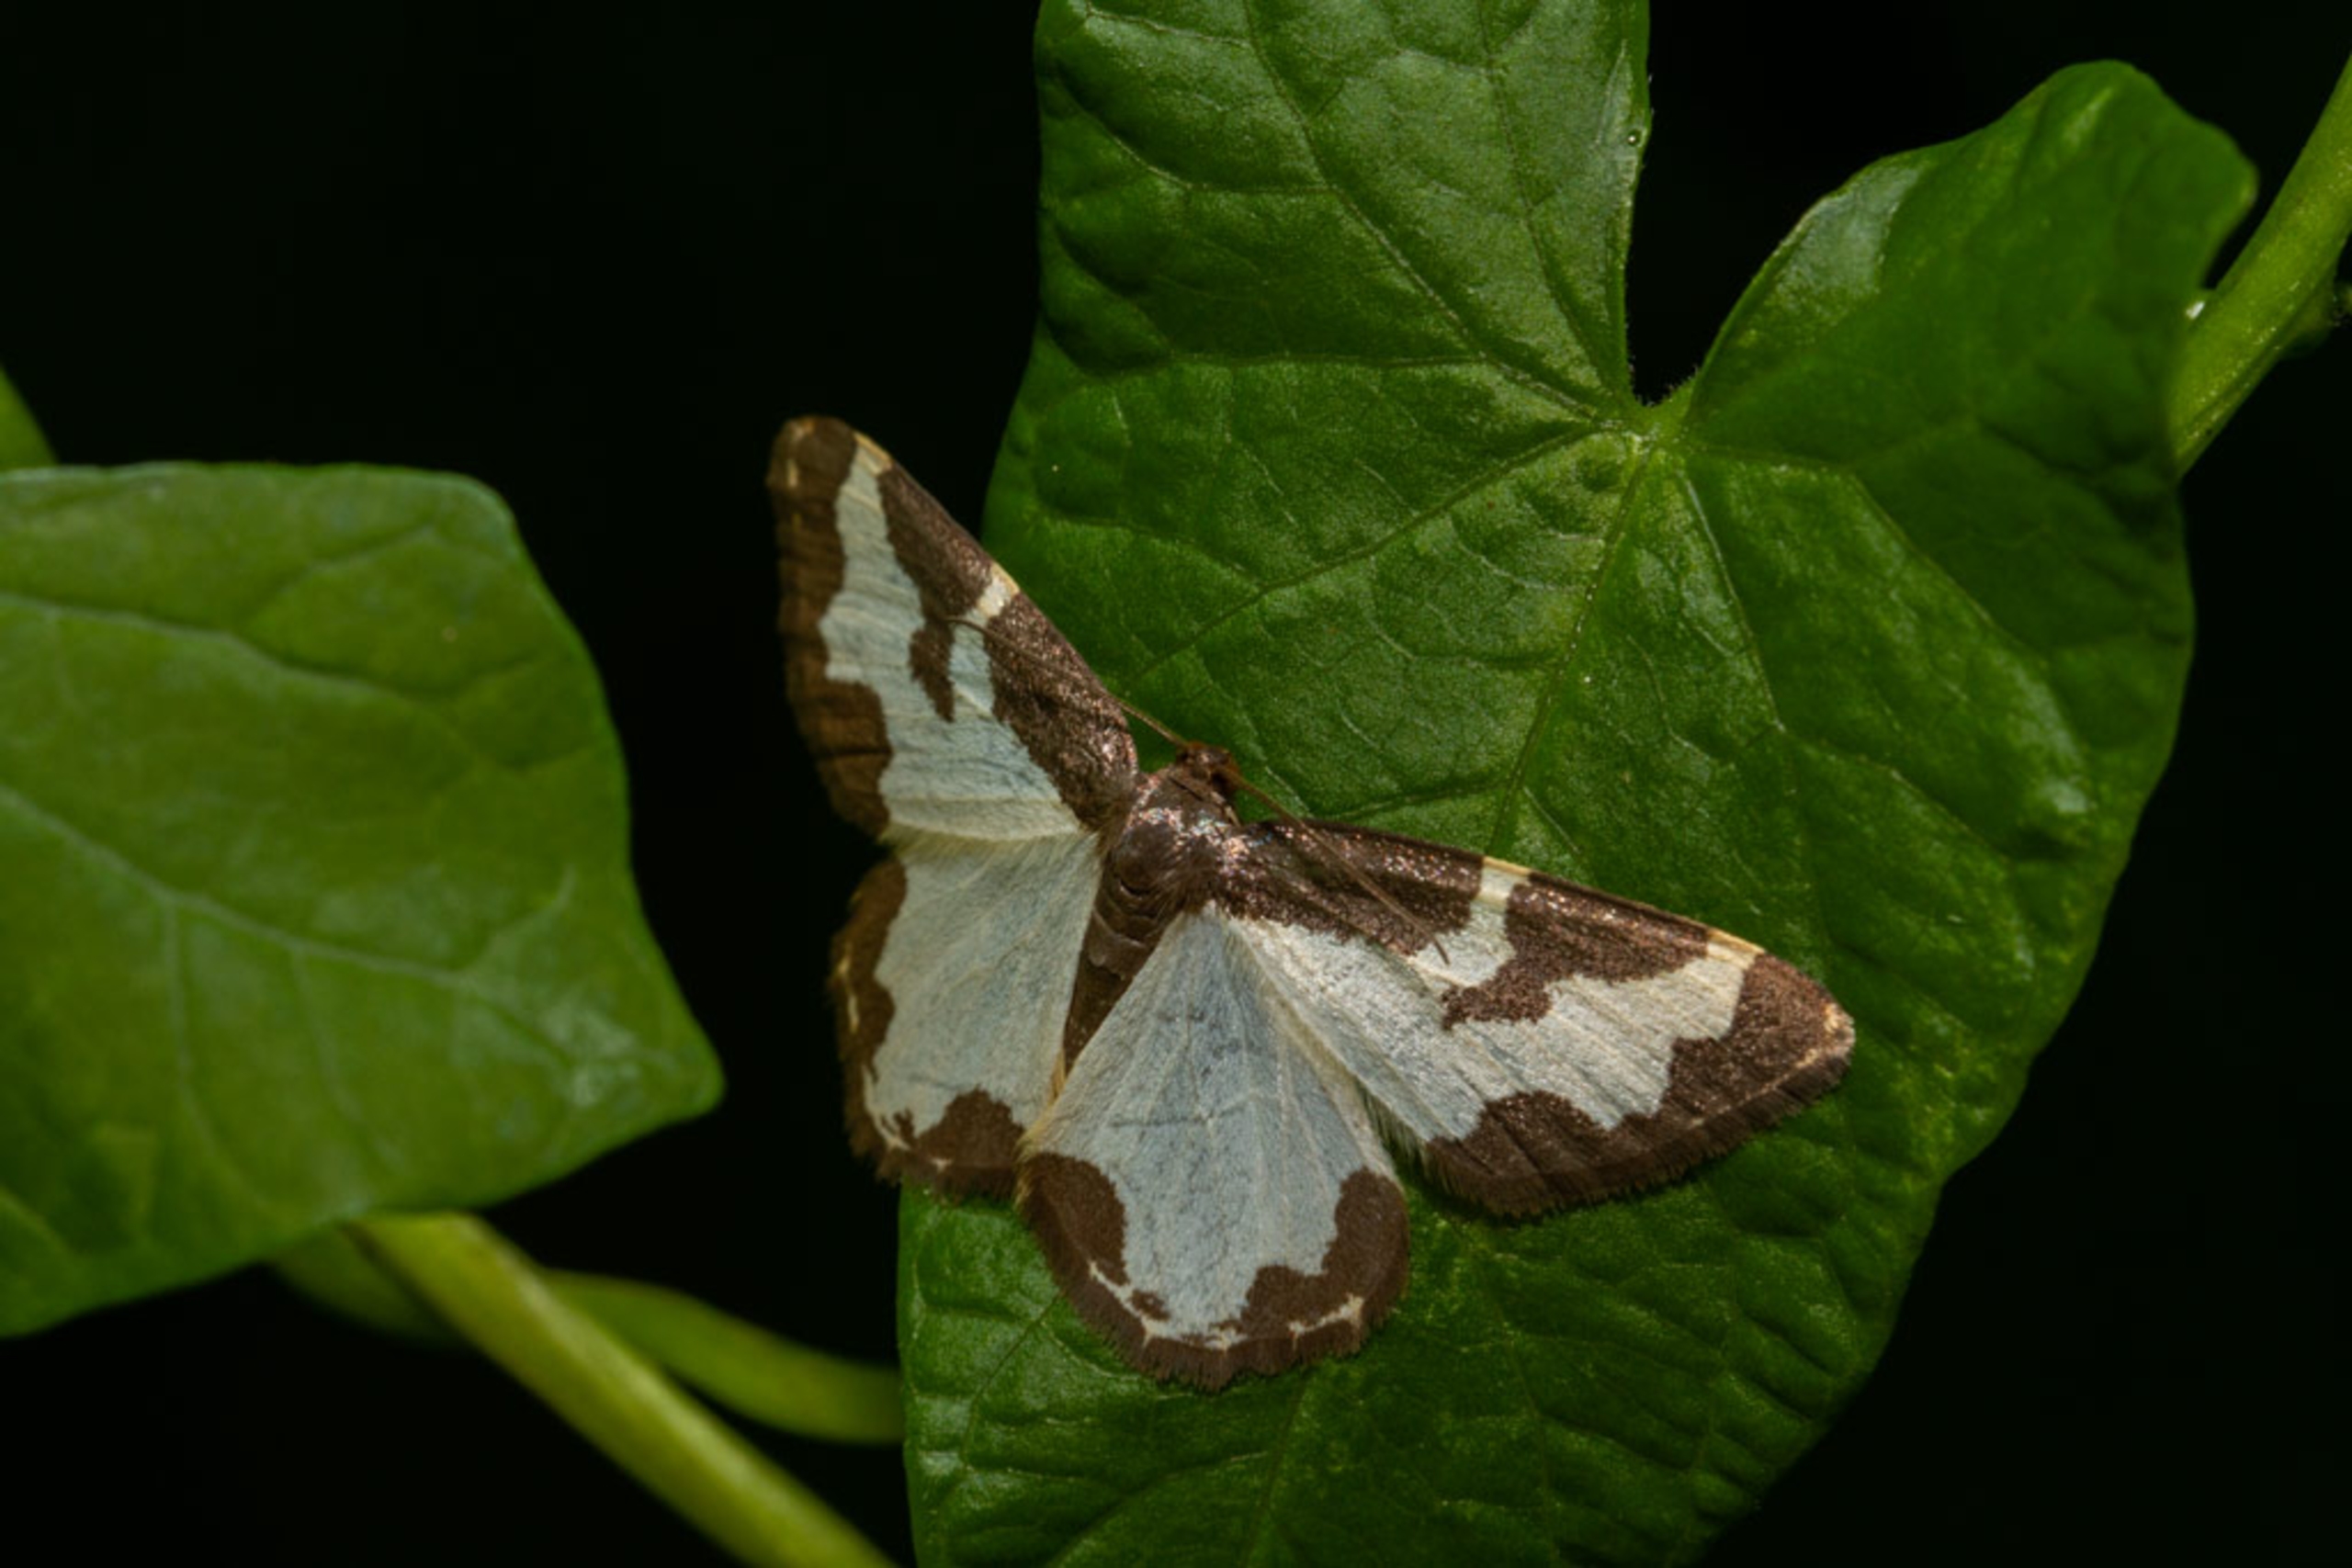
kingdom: Animalia
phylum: Arthropoda
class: Insecta
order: Lepidoptera
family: Geometridae
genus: Lomaspilis
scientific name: Lomaspilis marginata
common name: Sortrandet måler
